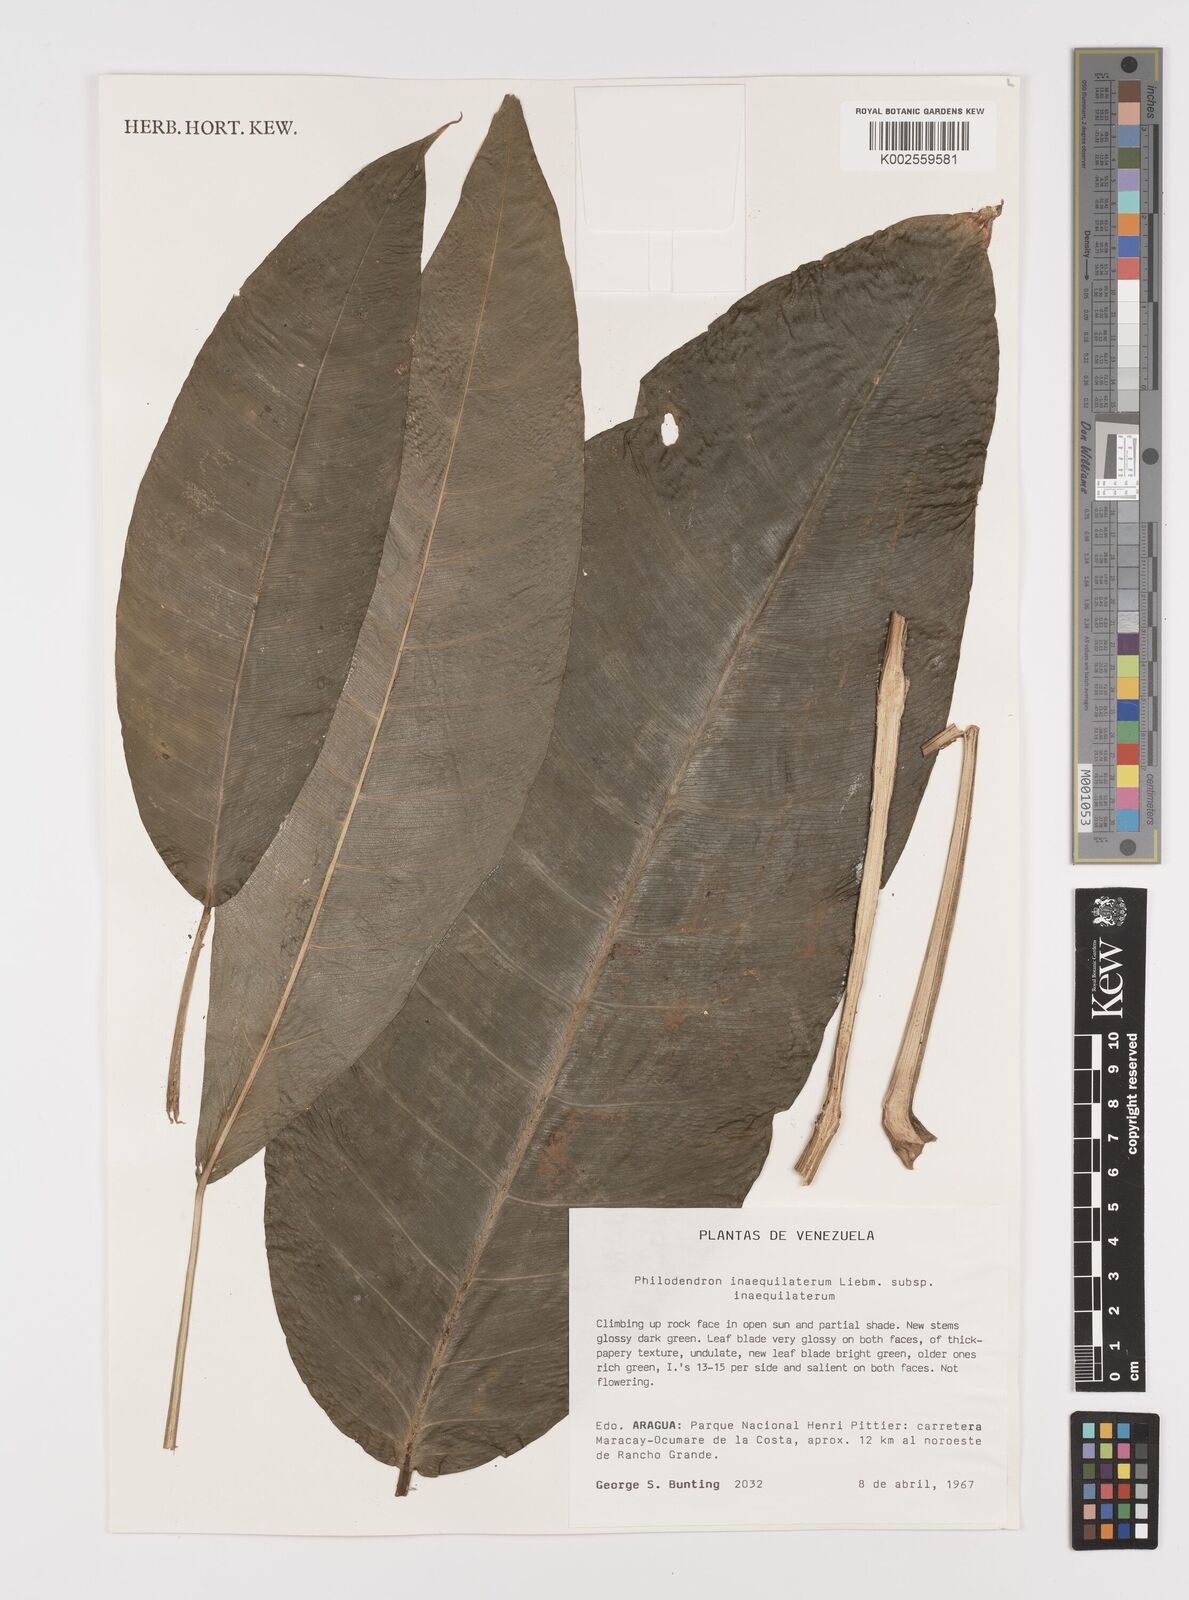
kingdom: Plantae
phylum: Tracheophyta
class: Liliopsida
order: Alismatales
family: Araceae
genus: Philodendron
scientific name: Philodendron inaequilaterum
